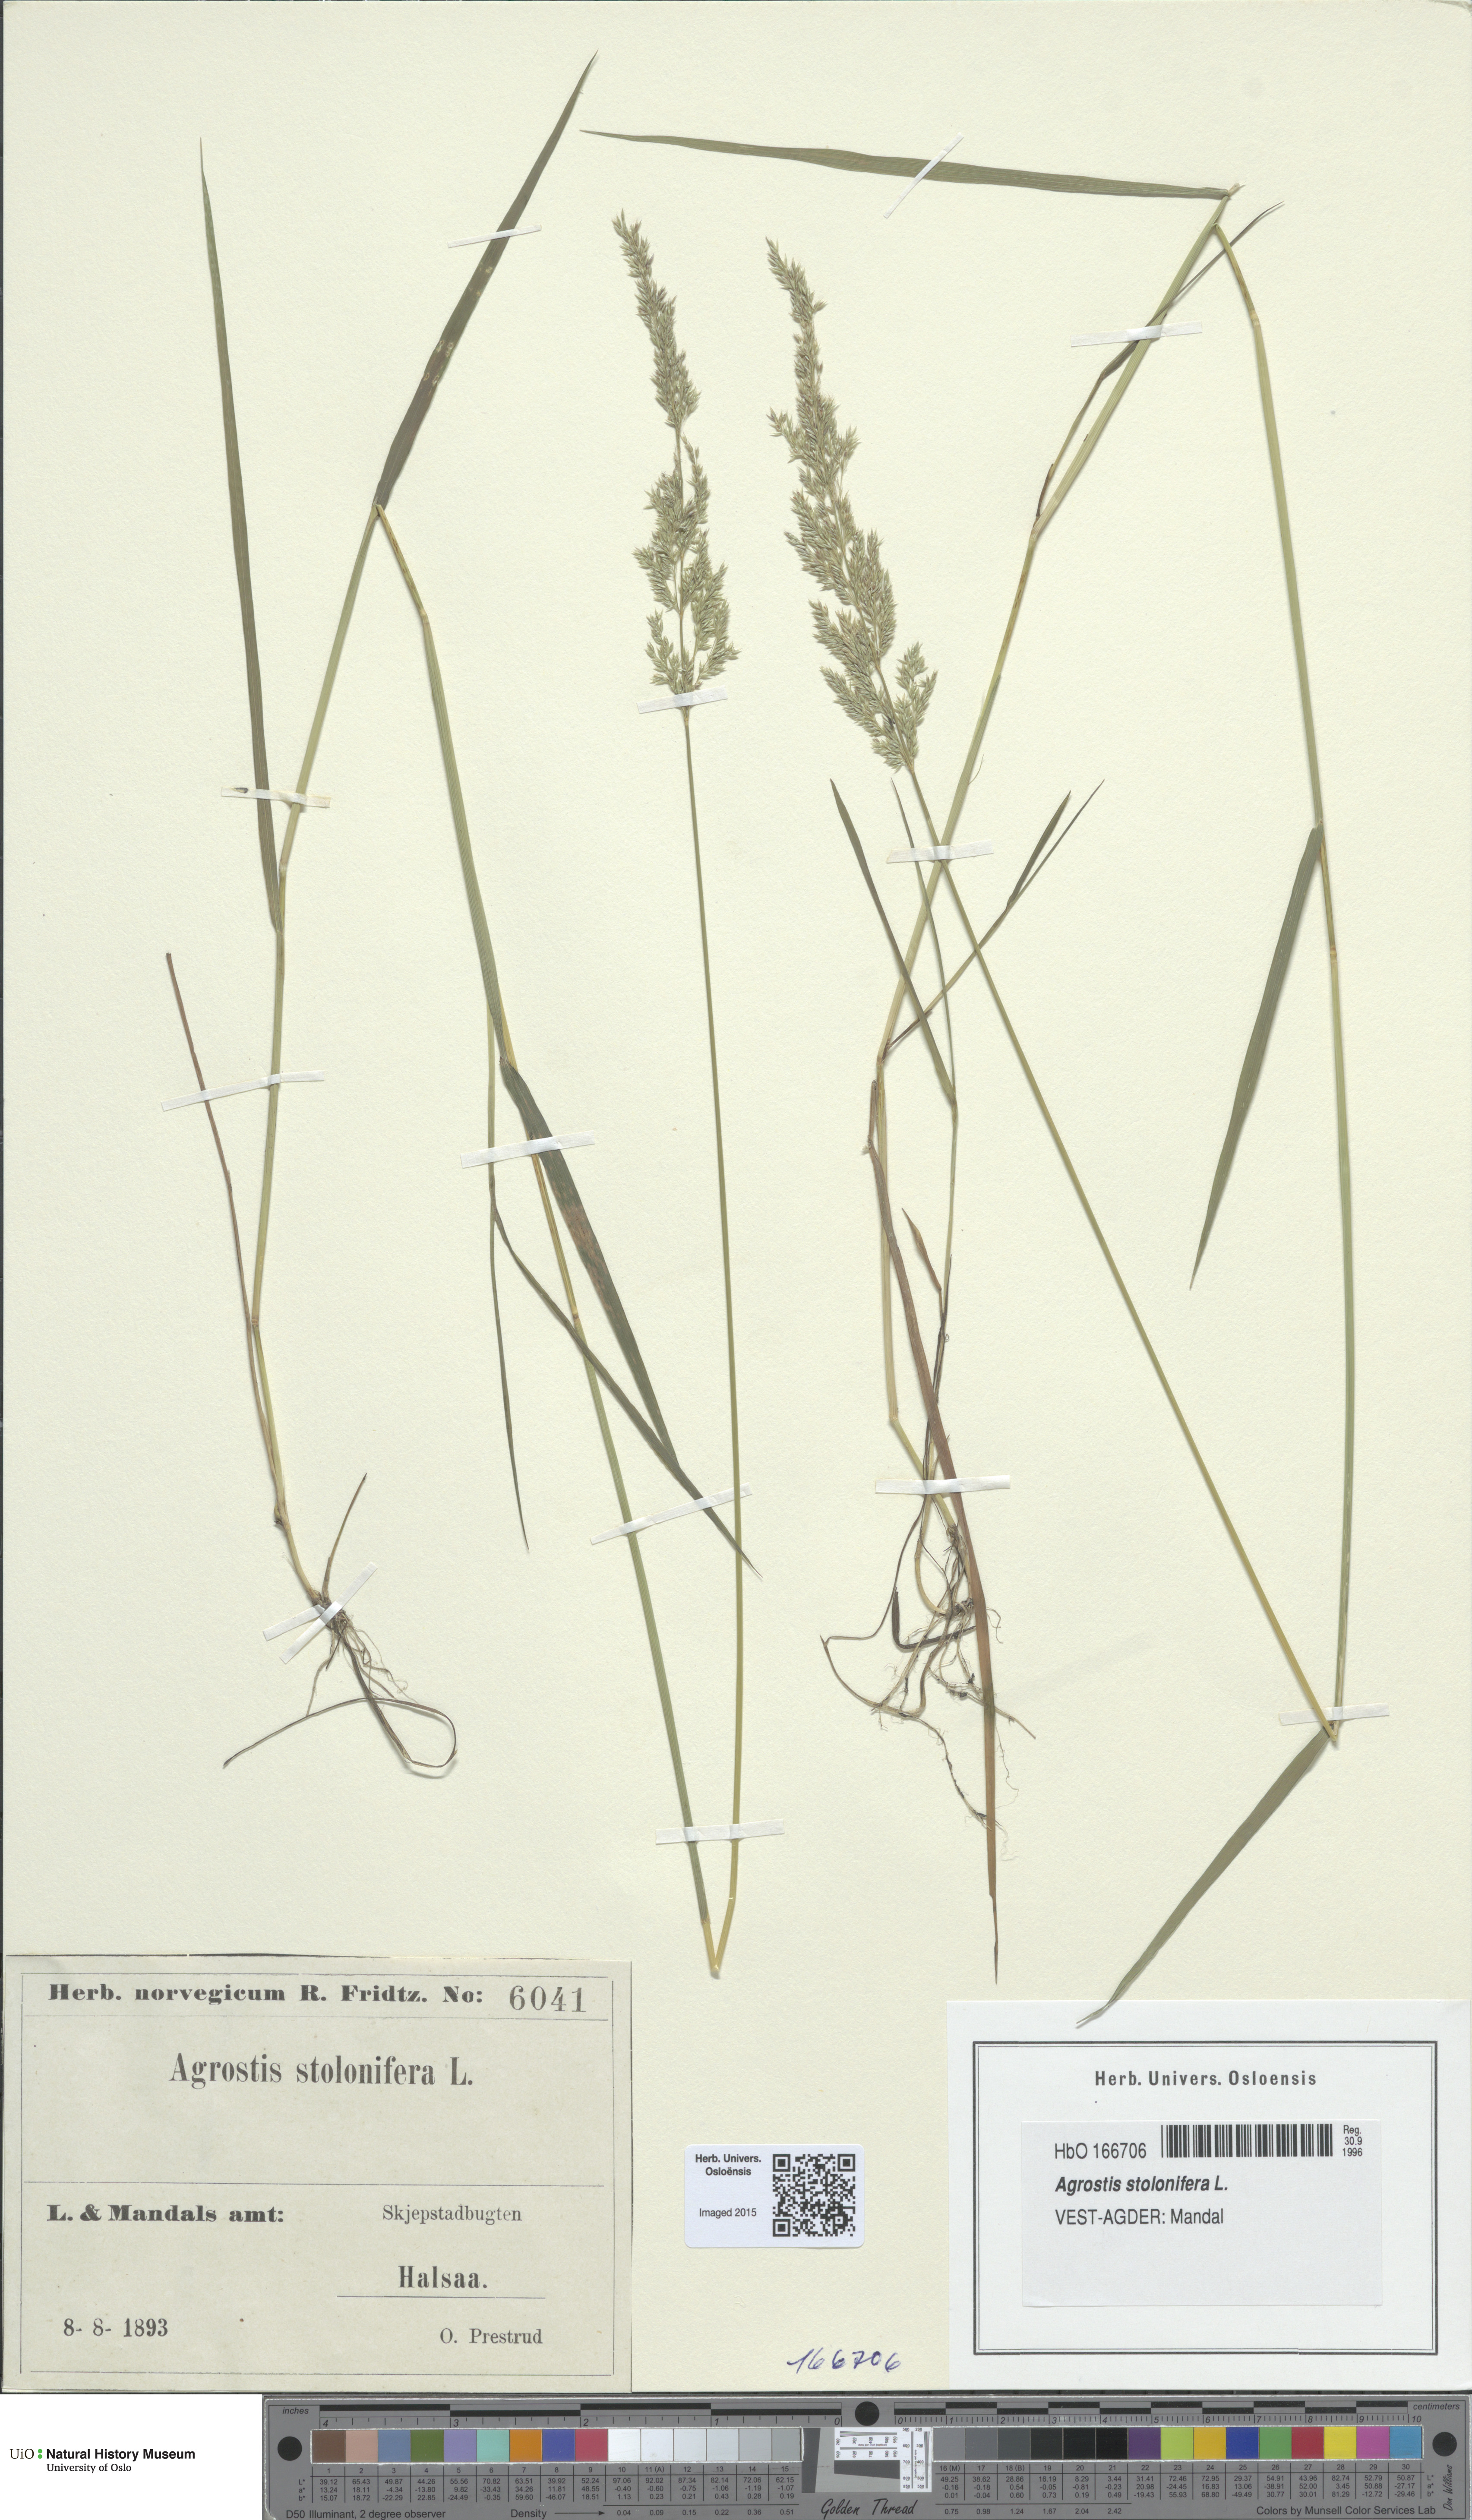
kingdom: Plantae
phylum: Tracheophyta
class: Liliopsida
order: Poales
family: Poaceae
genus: Agrostis
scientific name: Agrostis stolonifera
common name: Creeping bentgrass
